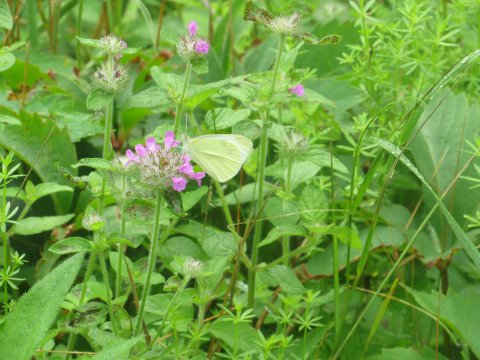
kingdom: Animalia
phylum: Arthropoda
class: Insecta
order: Lepidoptera
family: Pieridae
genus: Pieris
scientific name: Pieris rapae
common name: Cabbage White
